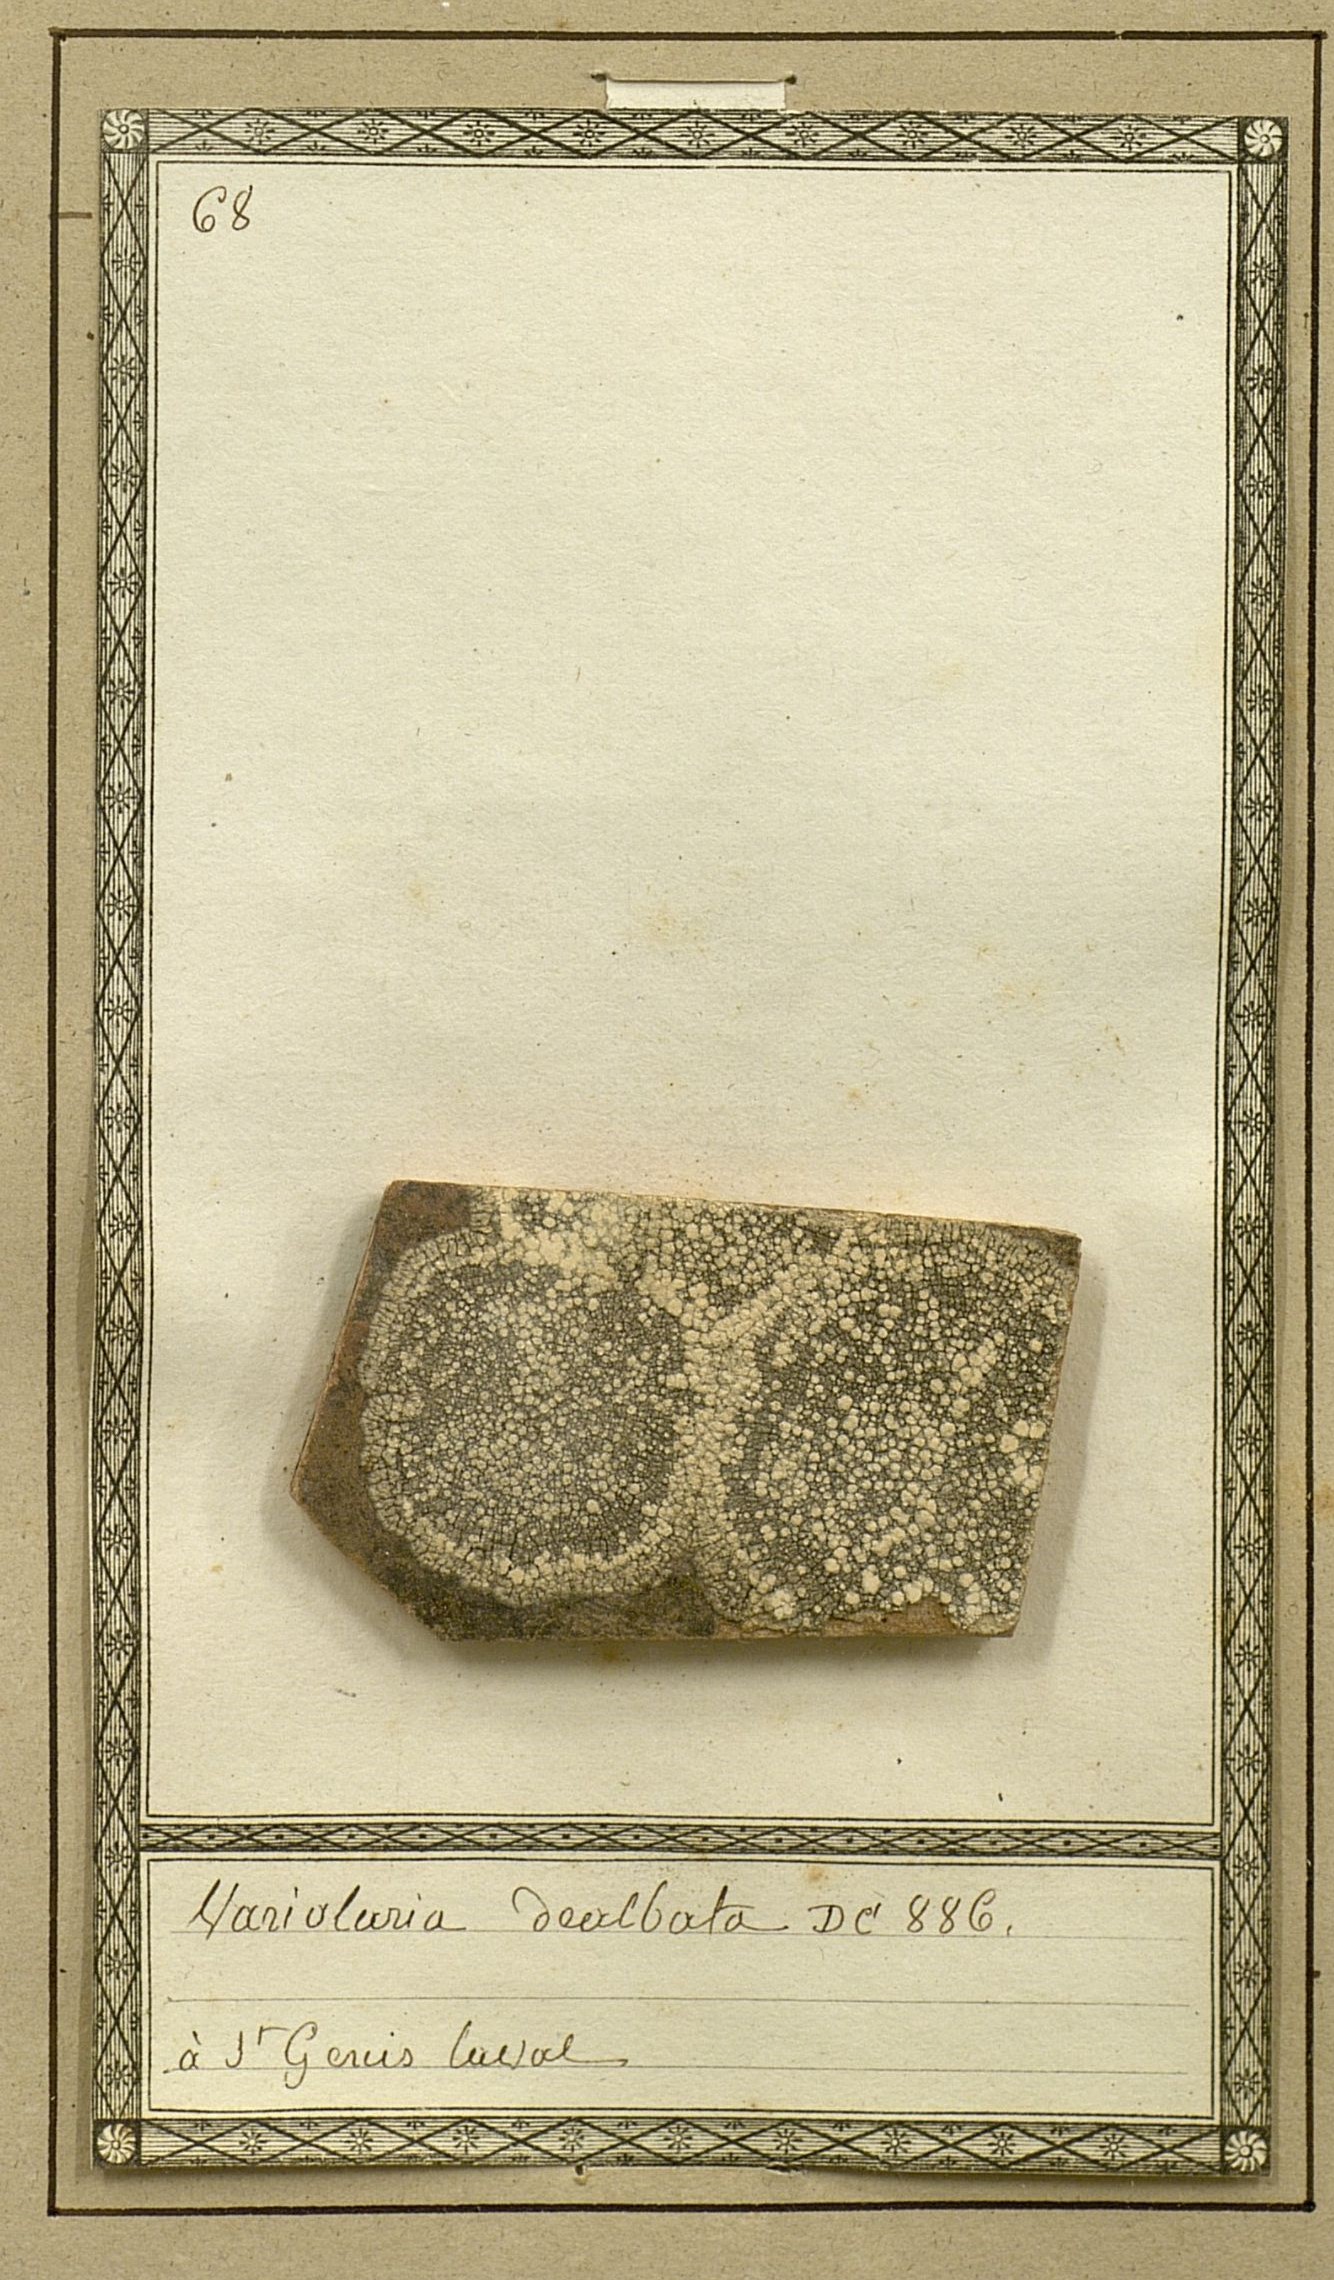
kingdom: Fungi
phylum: Ascomycota
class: Lecanoromycetes
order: Pertusariales
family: Pertusariaceae
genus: Variolaria
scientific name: Variolaria
